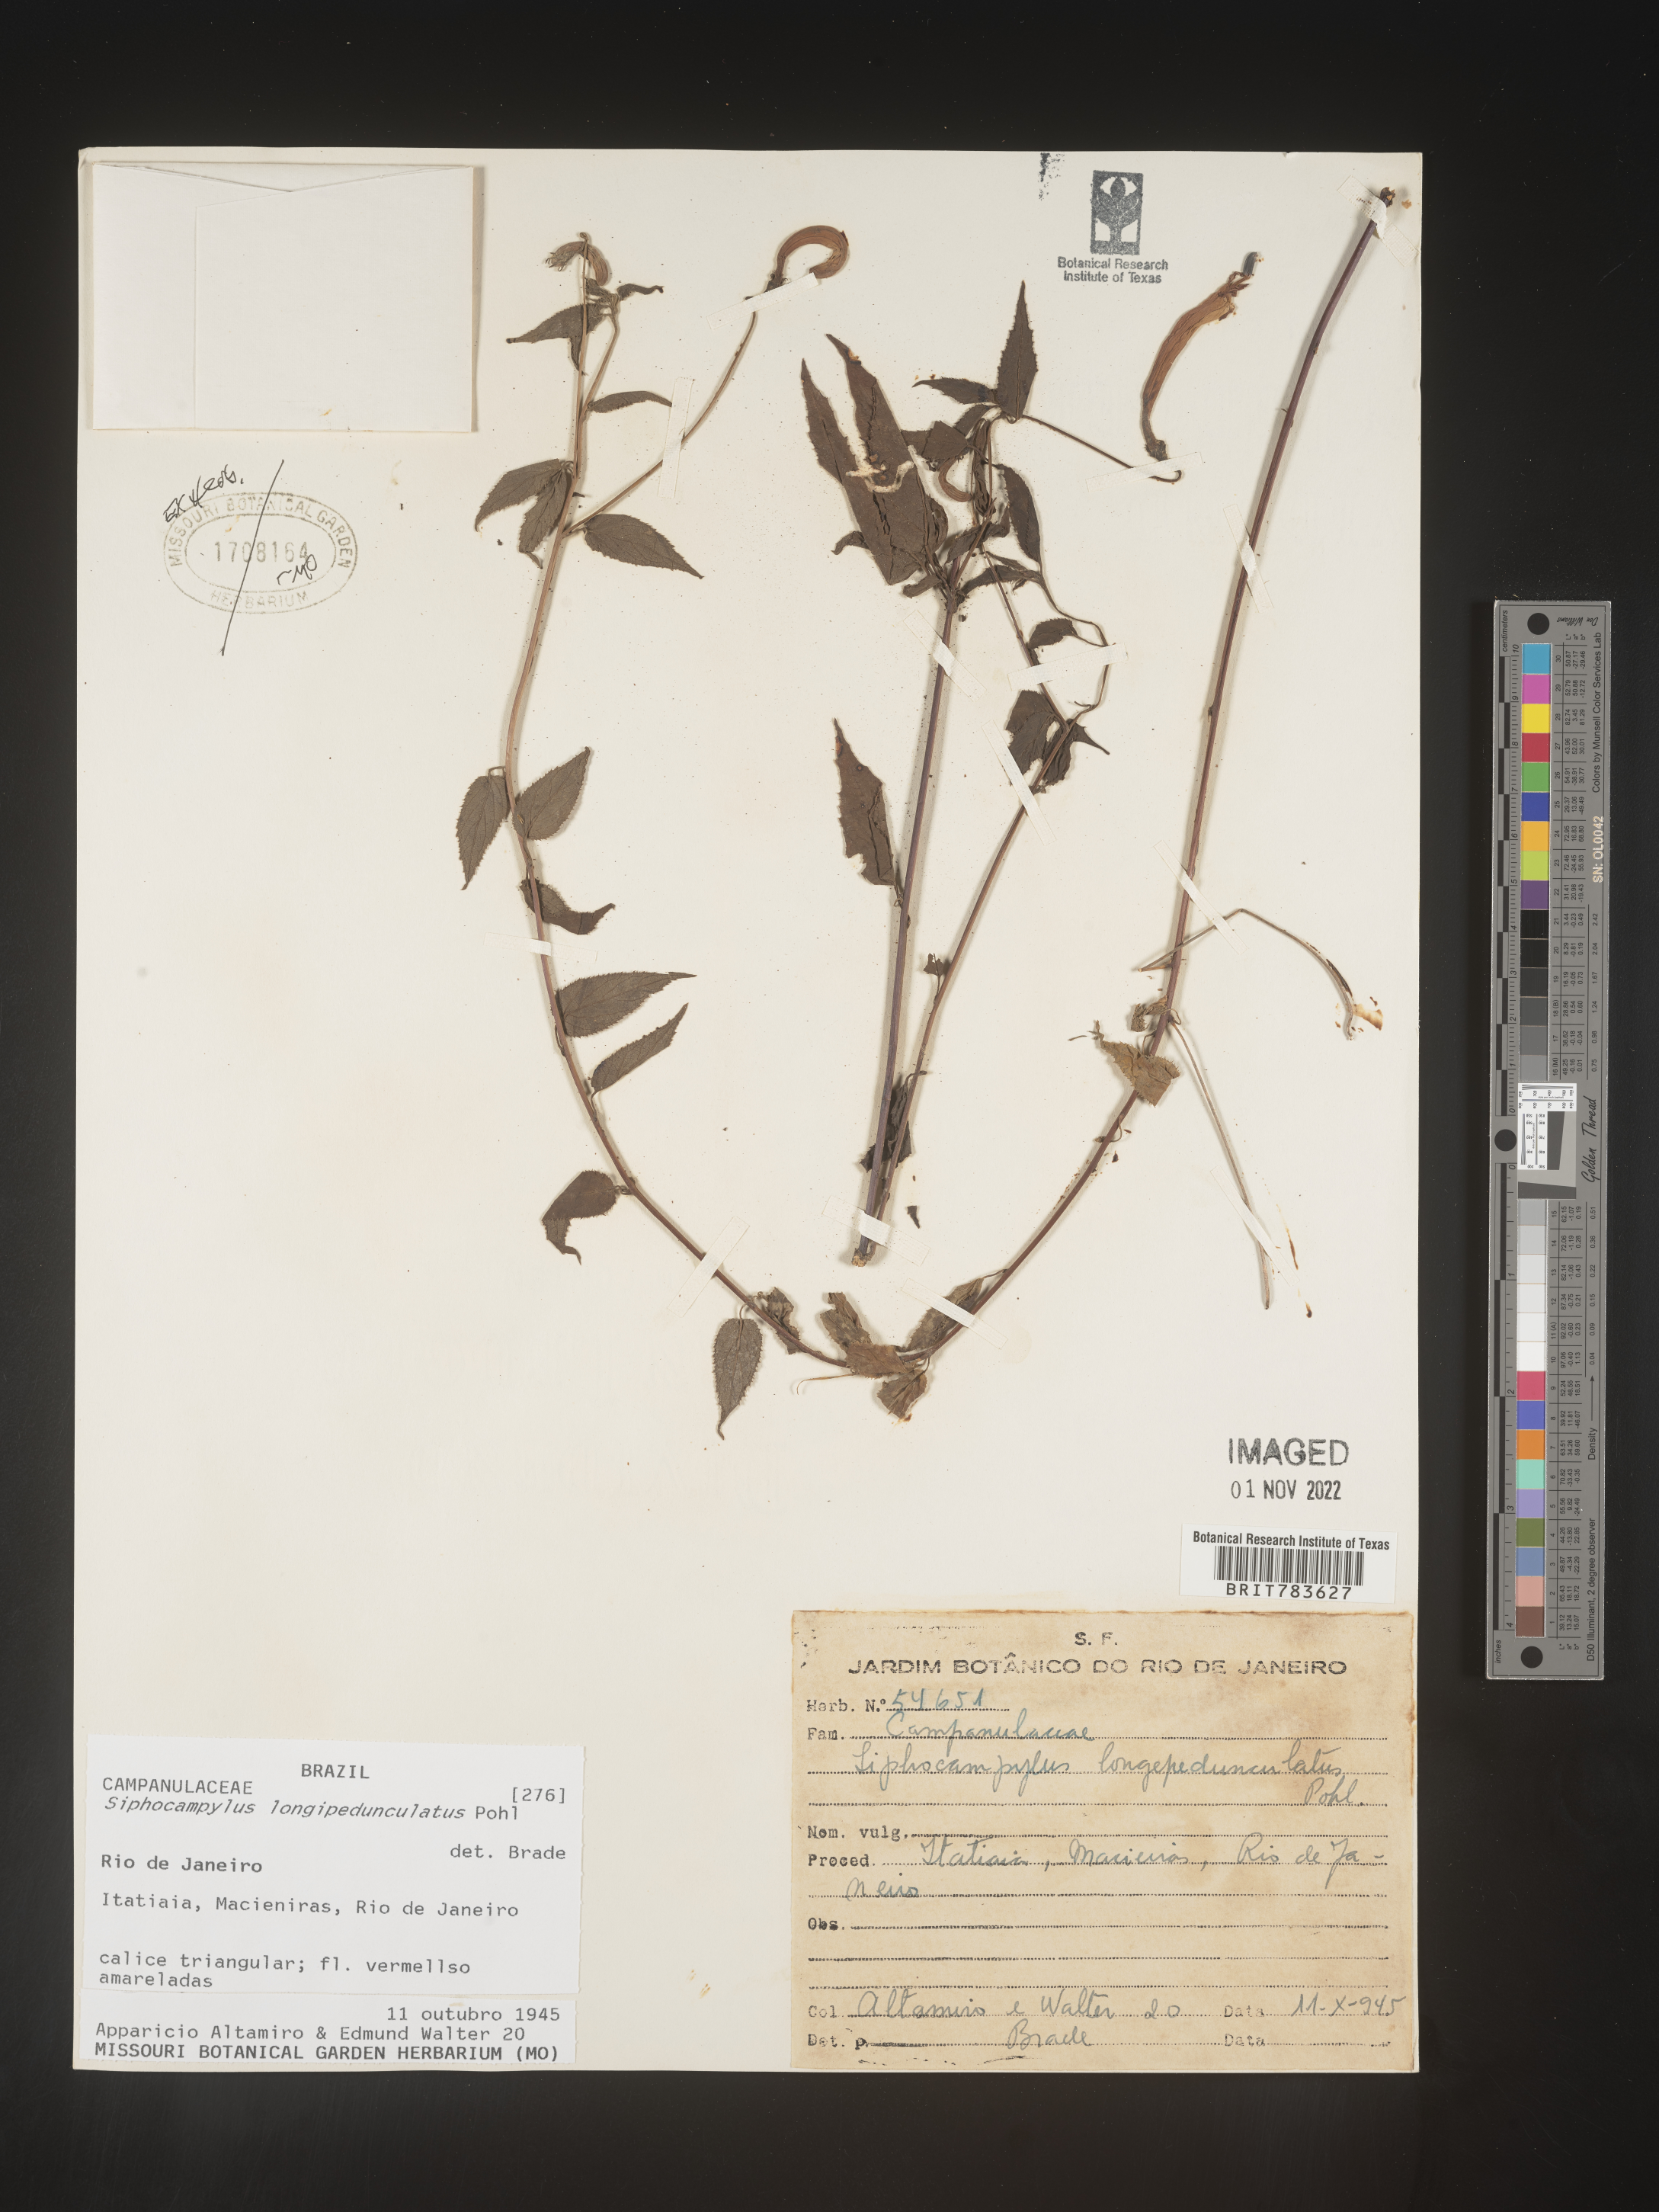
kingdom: Plantae
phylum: Tracheophyta
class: Magnoliopsida
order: Asterales
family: Campanulaceae
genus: Siphocampylus
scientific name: Siphocampylus
